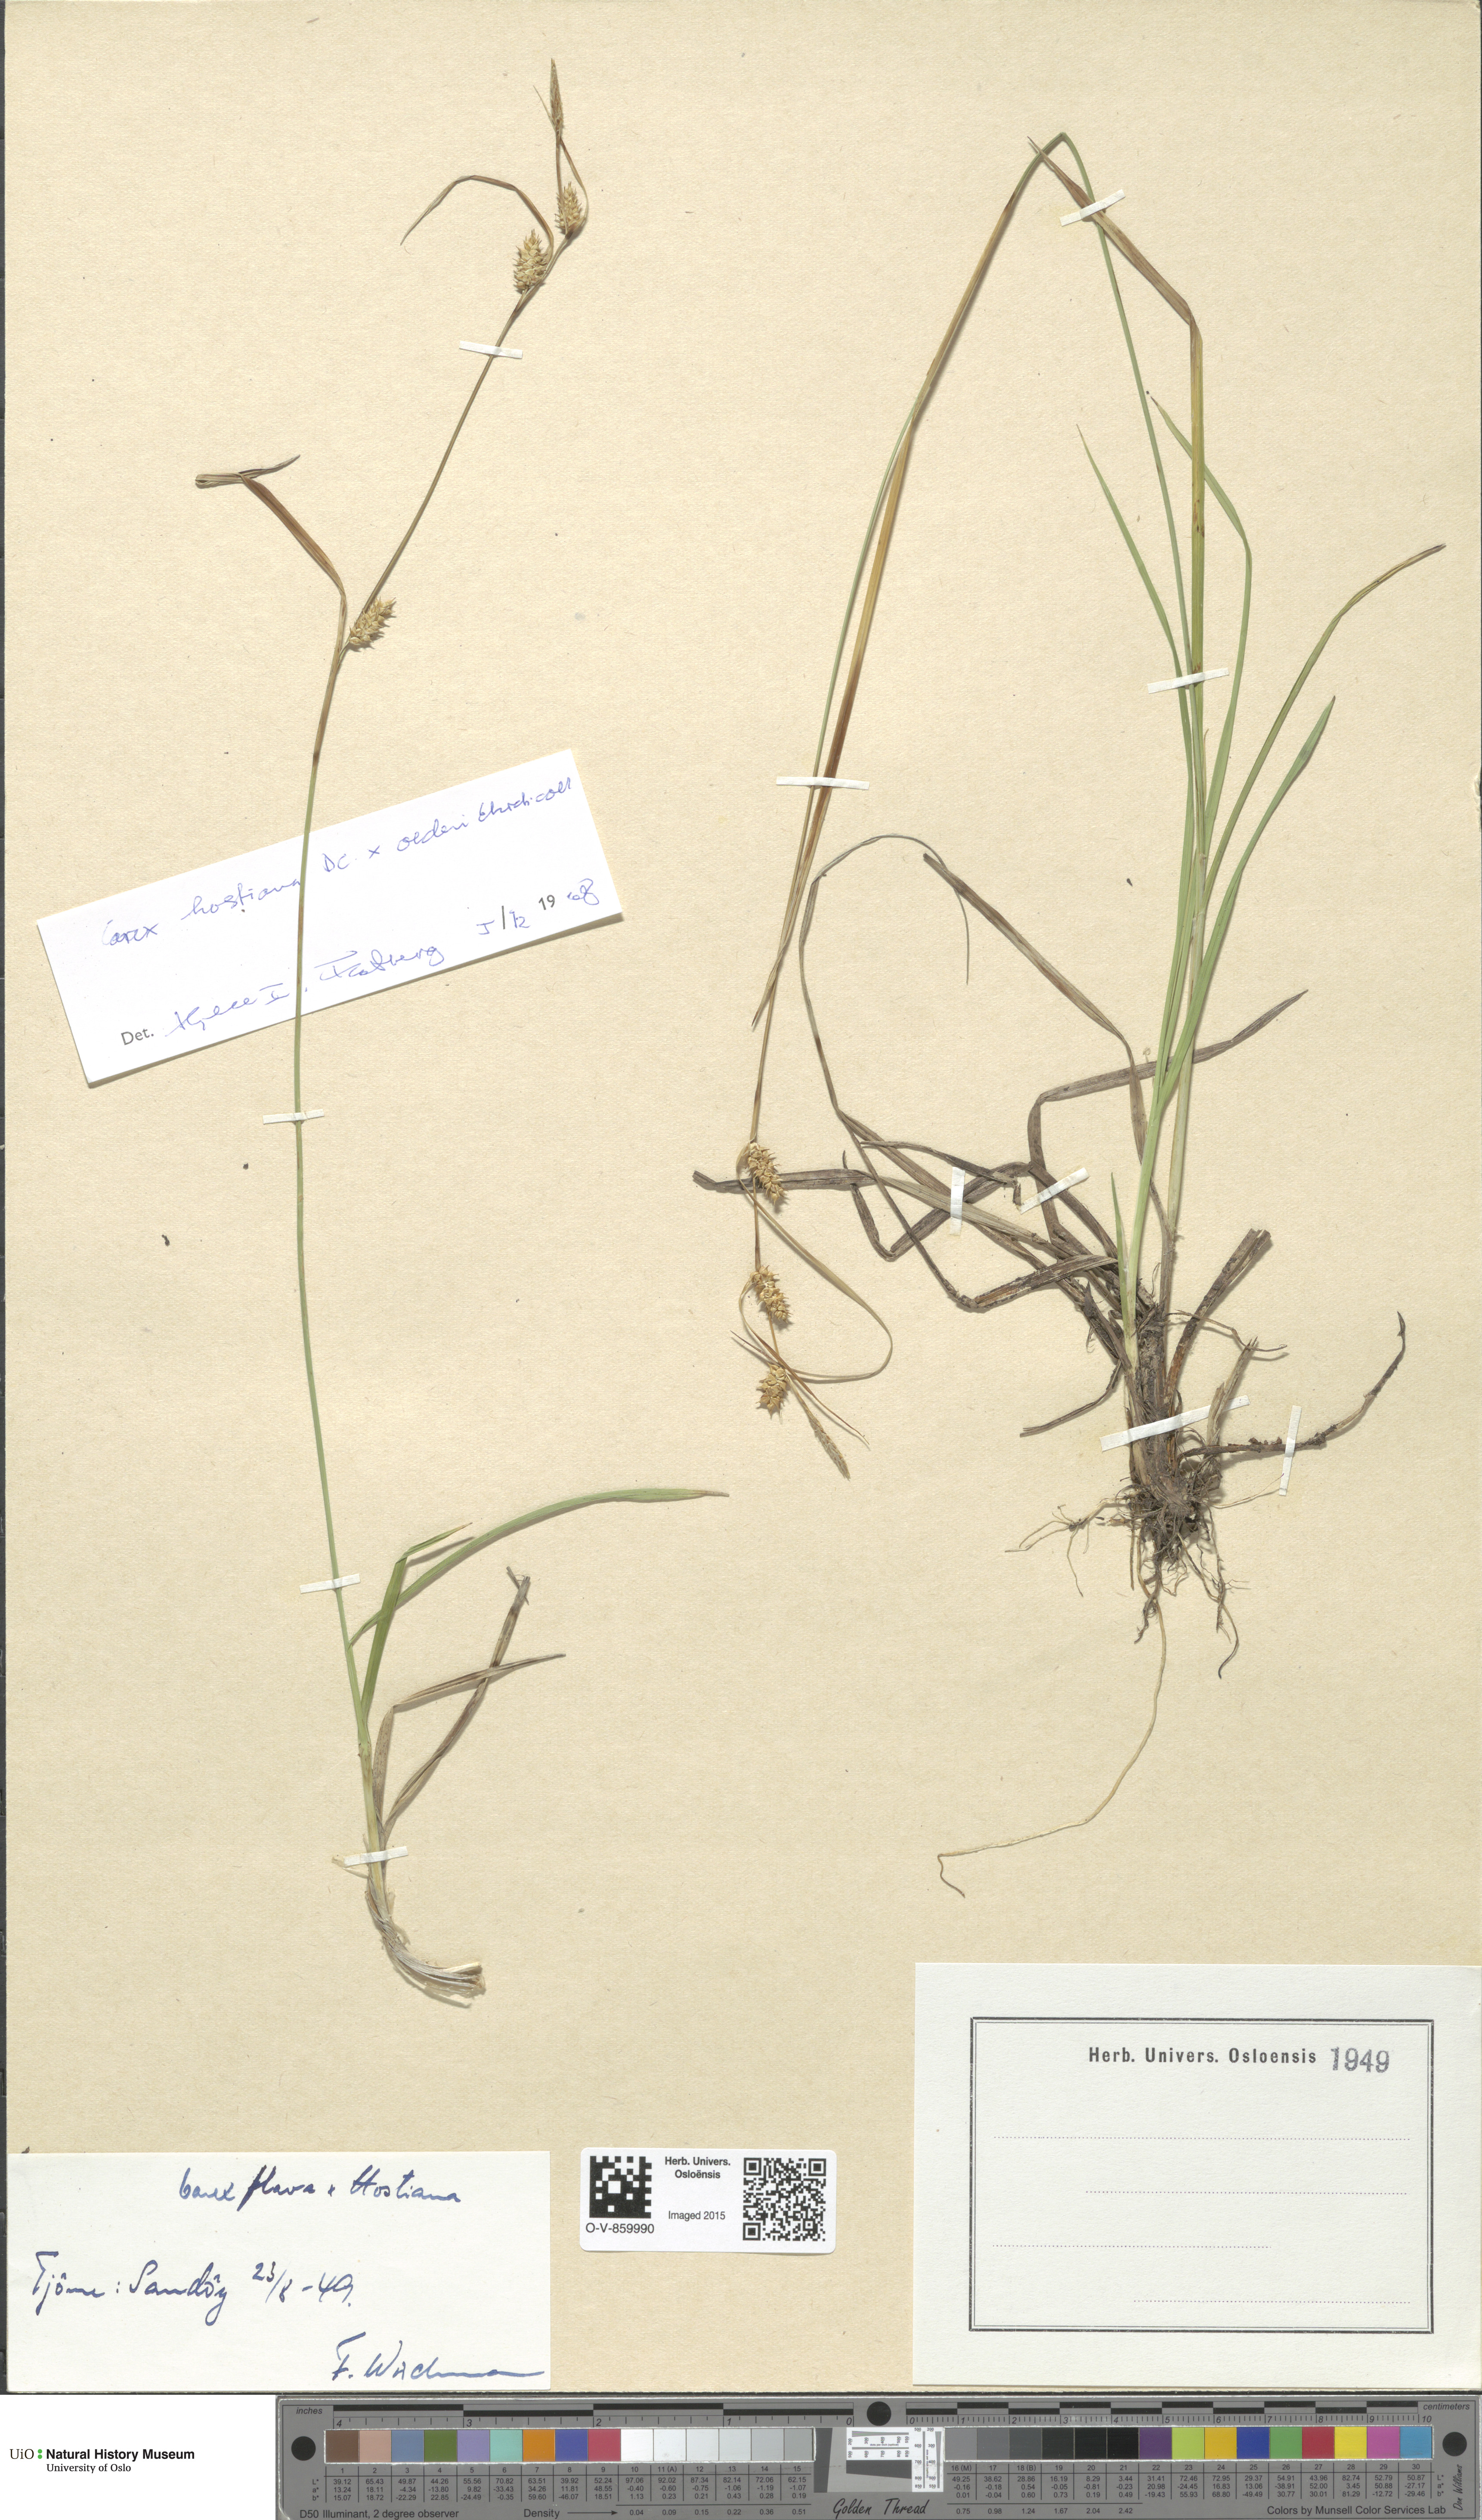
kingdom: Plantae
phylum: Tracheophyta
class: Liliopsida
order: Poales
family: Cyperaceae
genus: Carex
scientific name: Carex
